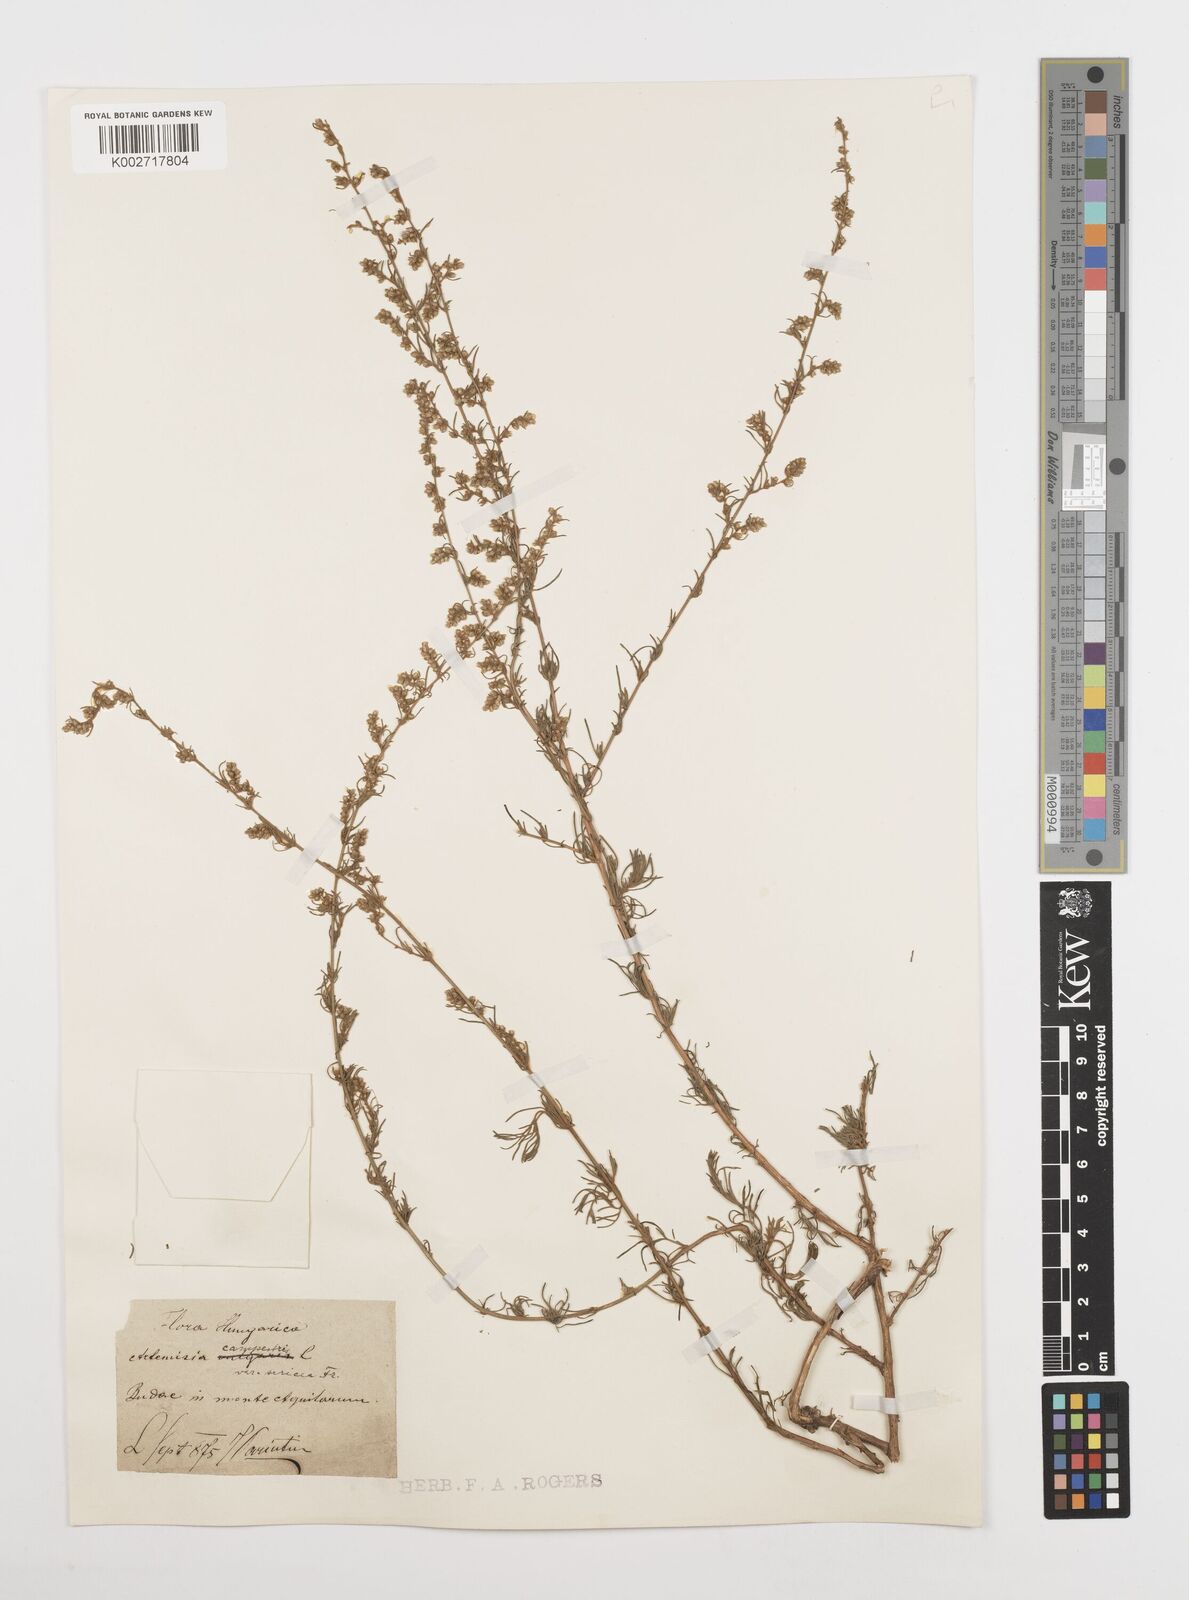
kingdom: Plantae
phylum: Tracheophyta
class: Magnoliopsida
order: Asterales
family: Asteraceae
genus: Artemisia
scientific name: Artemisia campestris
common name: Field wormwood
